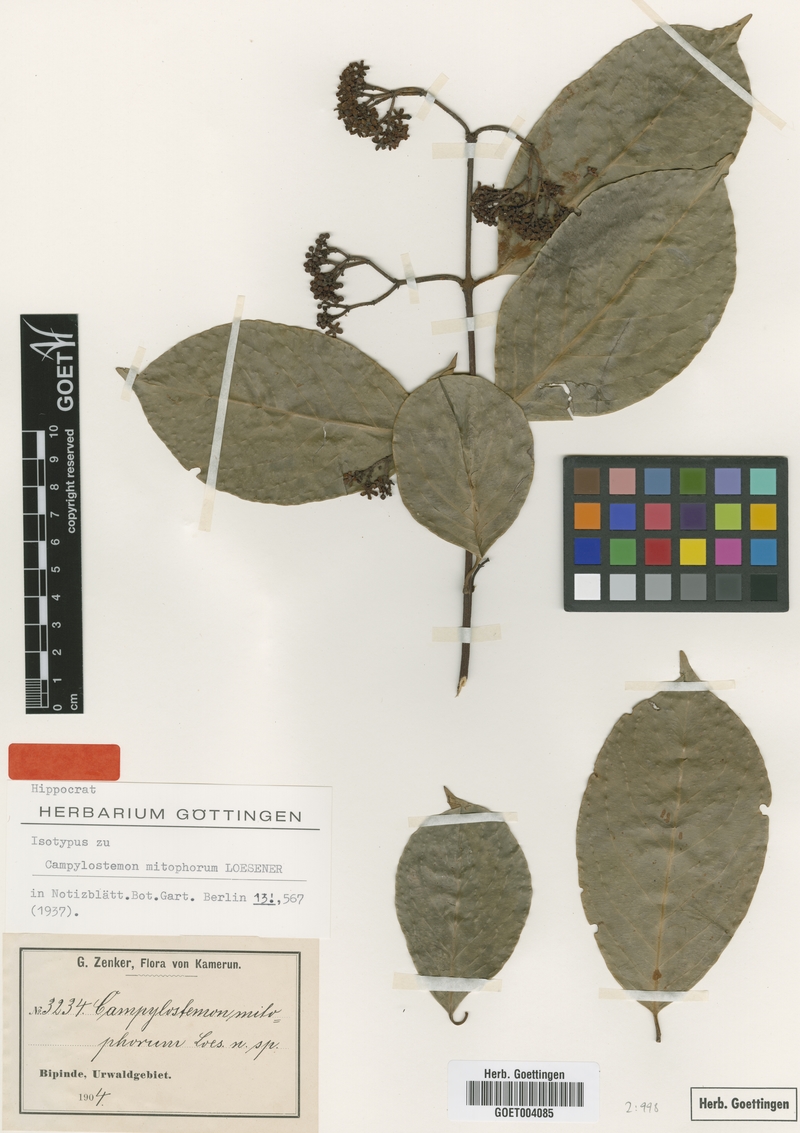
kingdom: Plantae
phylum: Tracheophyta
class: Magnoliopsida
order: Celastrales
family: Celastraceae
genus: Campylostemon
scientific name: Campylostemon mitophorum
